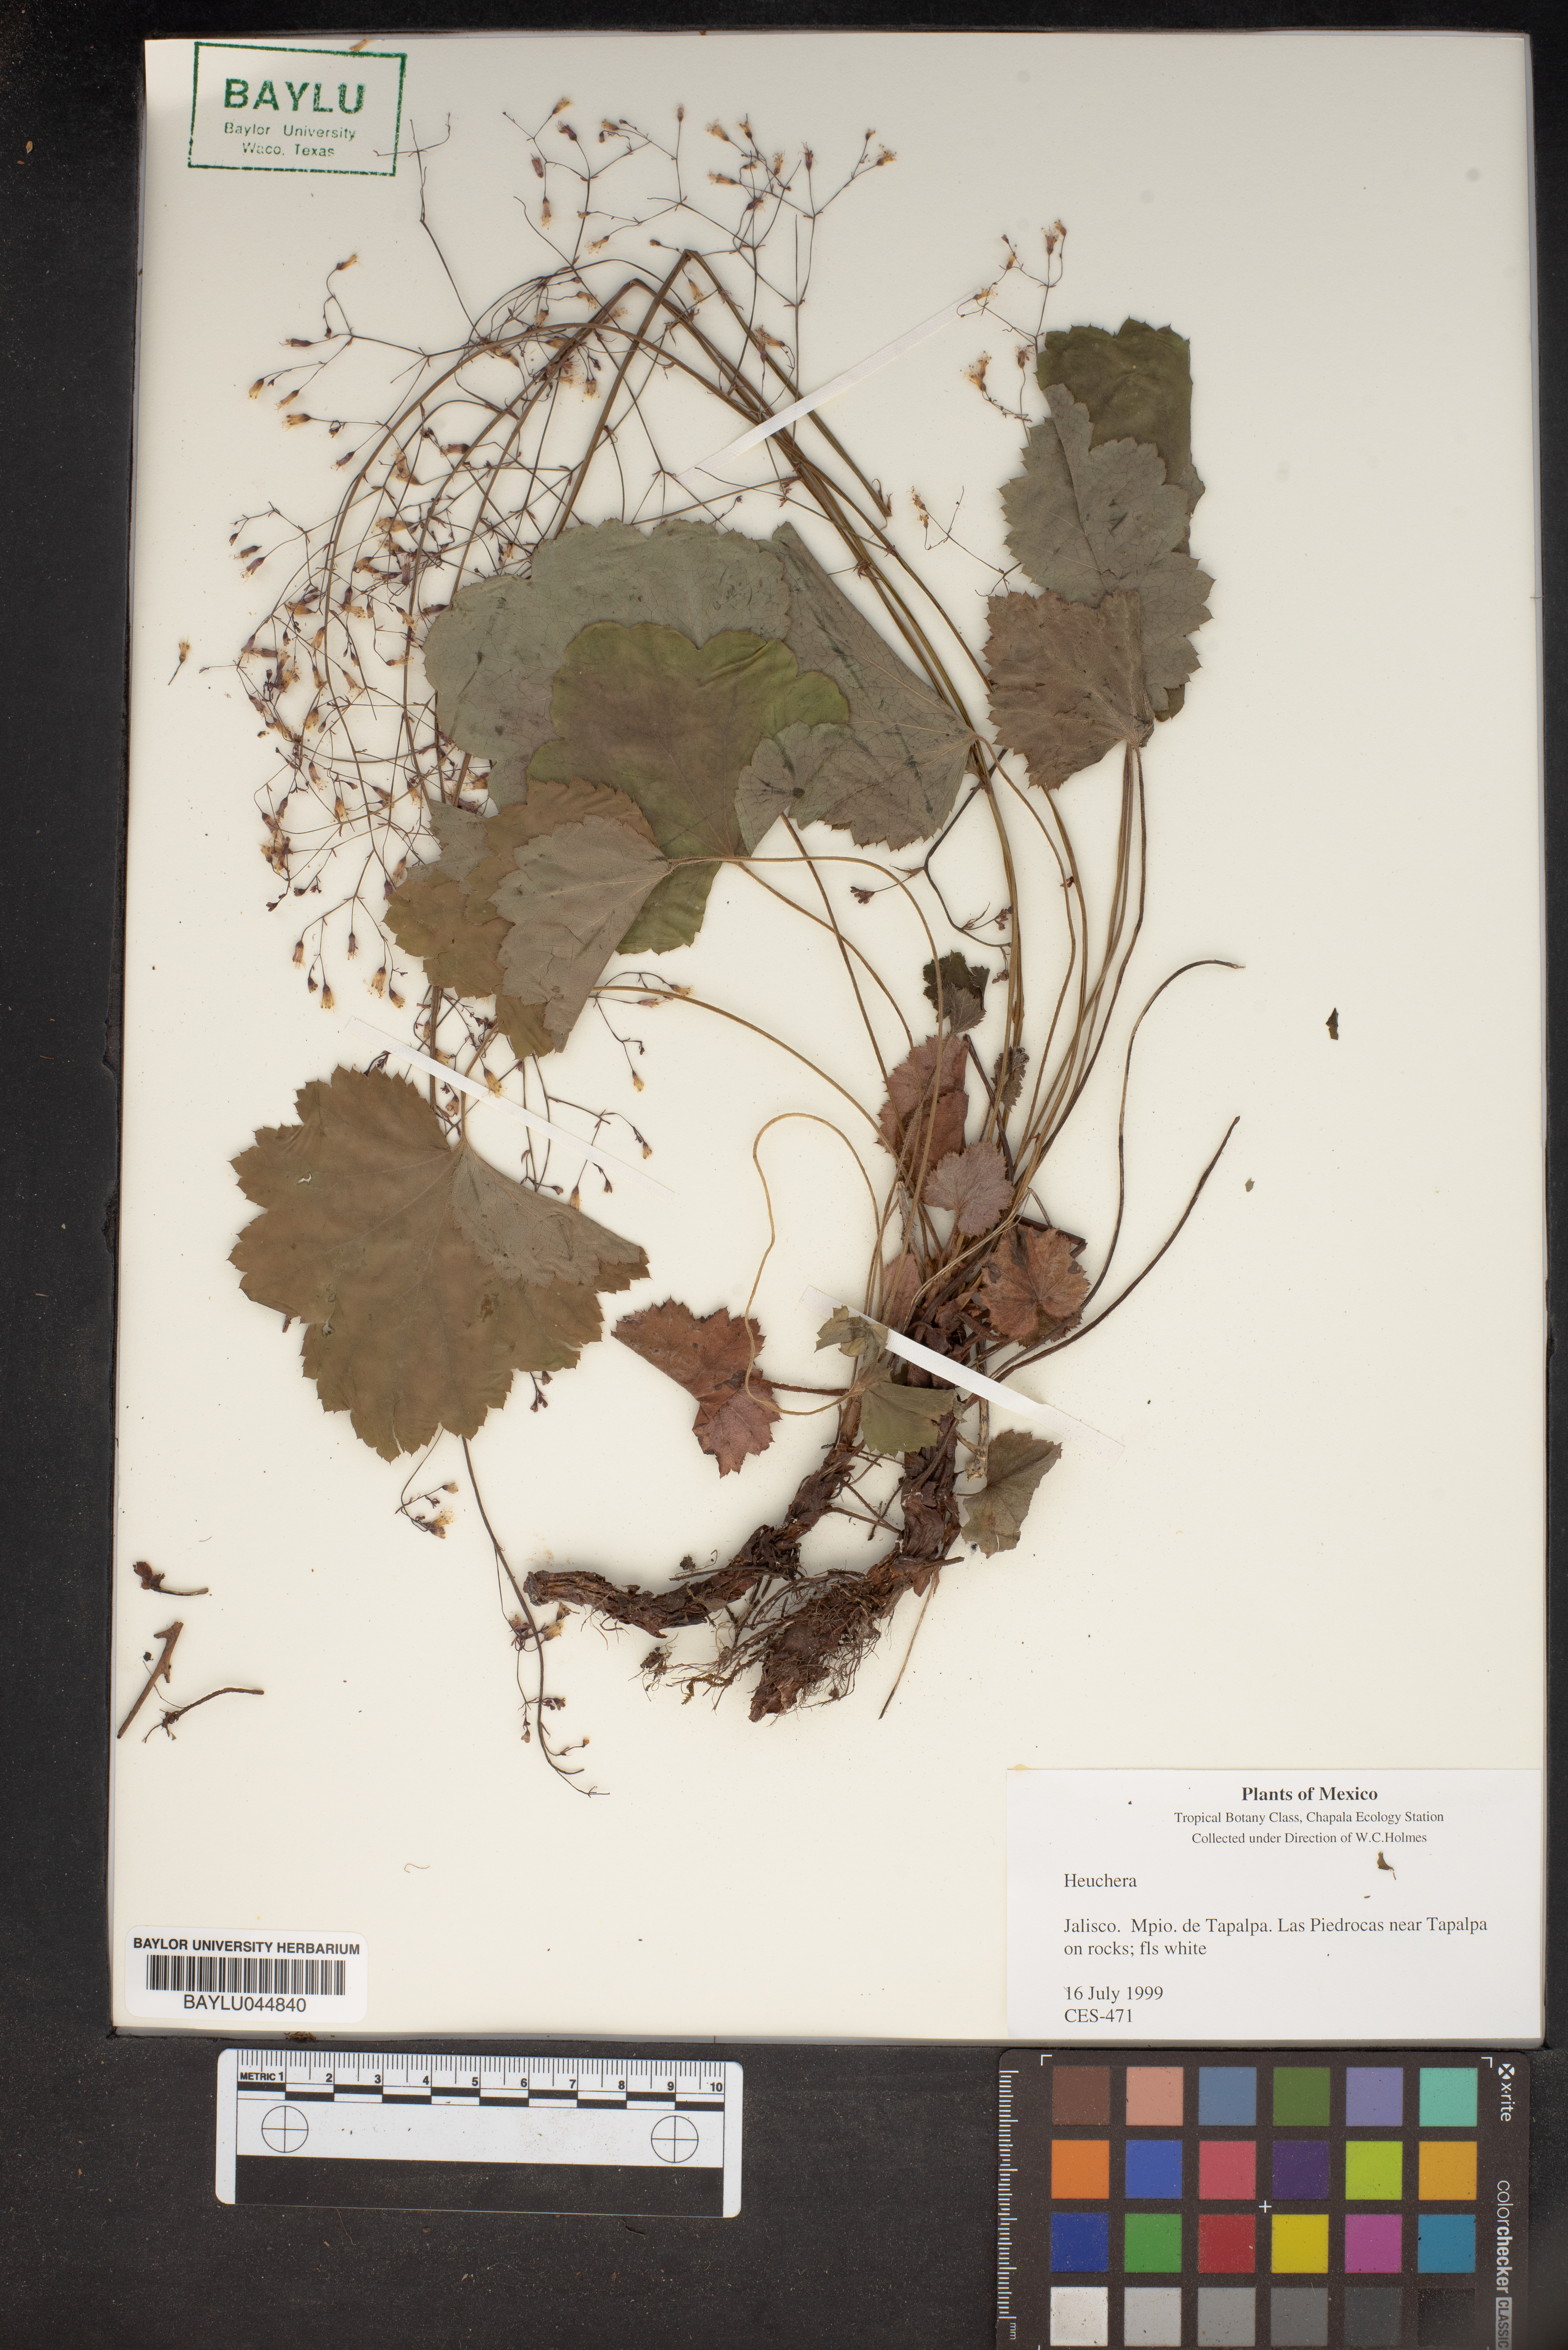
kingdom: Plantae
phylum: Tracheophyta
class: Magnoliopsida
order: Saxifragales
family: Saxifragaceae
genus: Heuchera
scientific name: Heuchera
